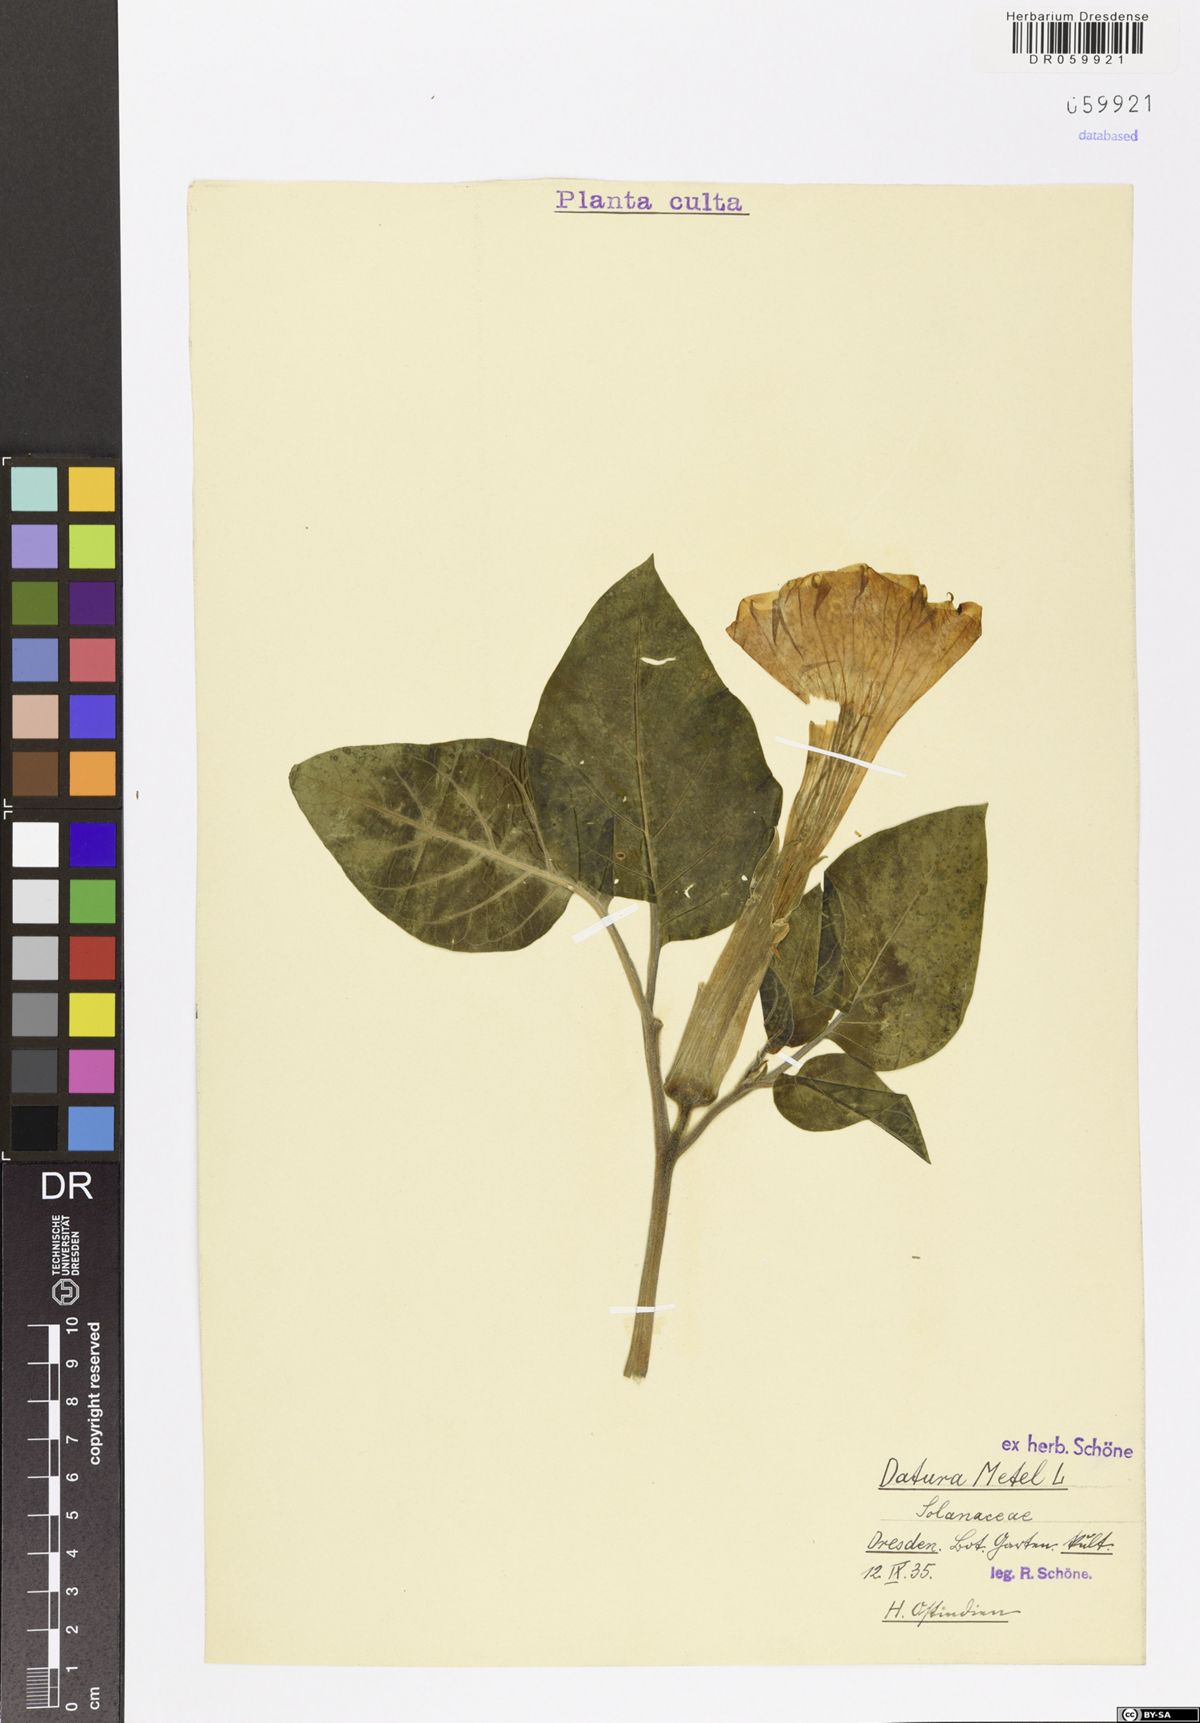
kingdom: Plantae
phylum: Tracheophyta
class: Magnoliopsida
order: Solanales
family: Solanaceae
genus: Datura
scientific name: Datura metel
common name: Jimsonweed
